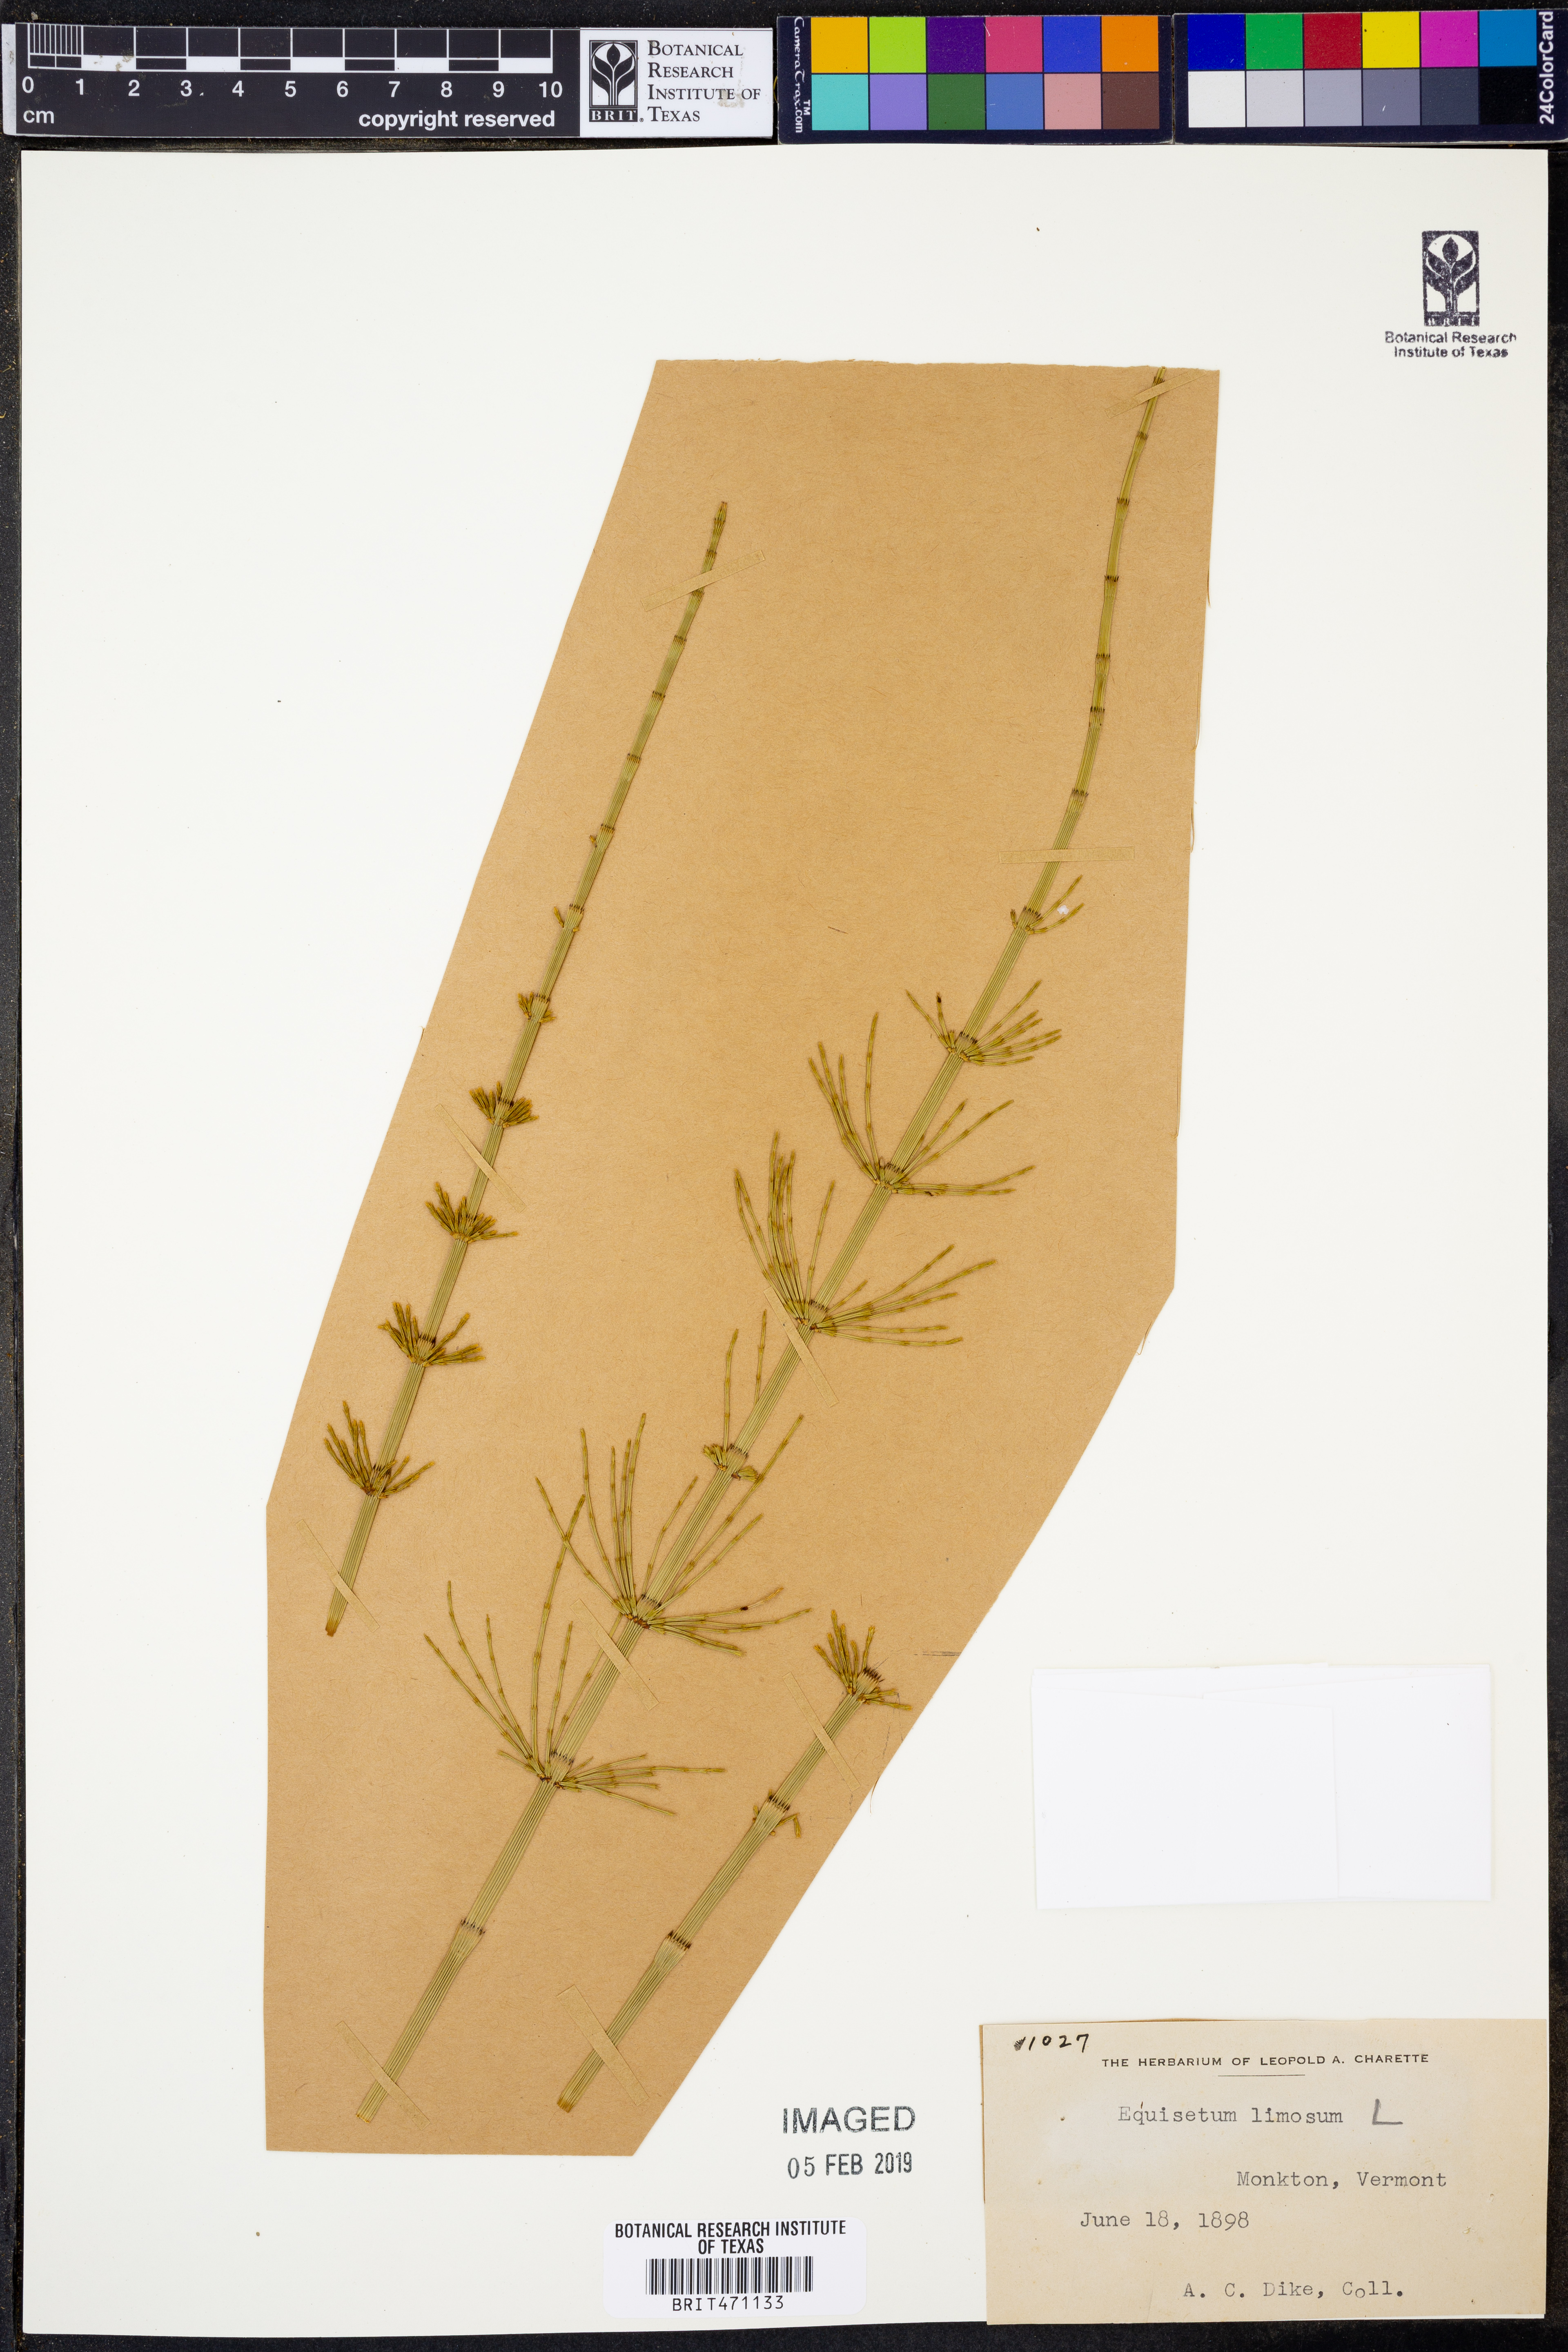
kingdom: Plantae
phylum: Tracheophyta
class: Polypodiopsida
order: Equisetales
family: Equisetaceae
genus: Equisetum
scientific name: Equisetum fluviatile
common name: Water horsetail
